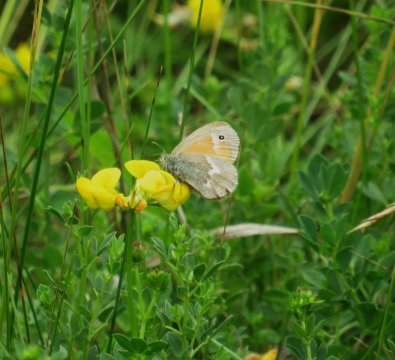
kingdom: Animalia
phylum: Arthropoda
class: Insecta
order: Lepidoptera
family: Nymphalidae
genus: Coenonympha
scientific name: Coenonympha tullia
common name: Large Heath
